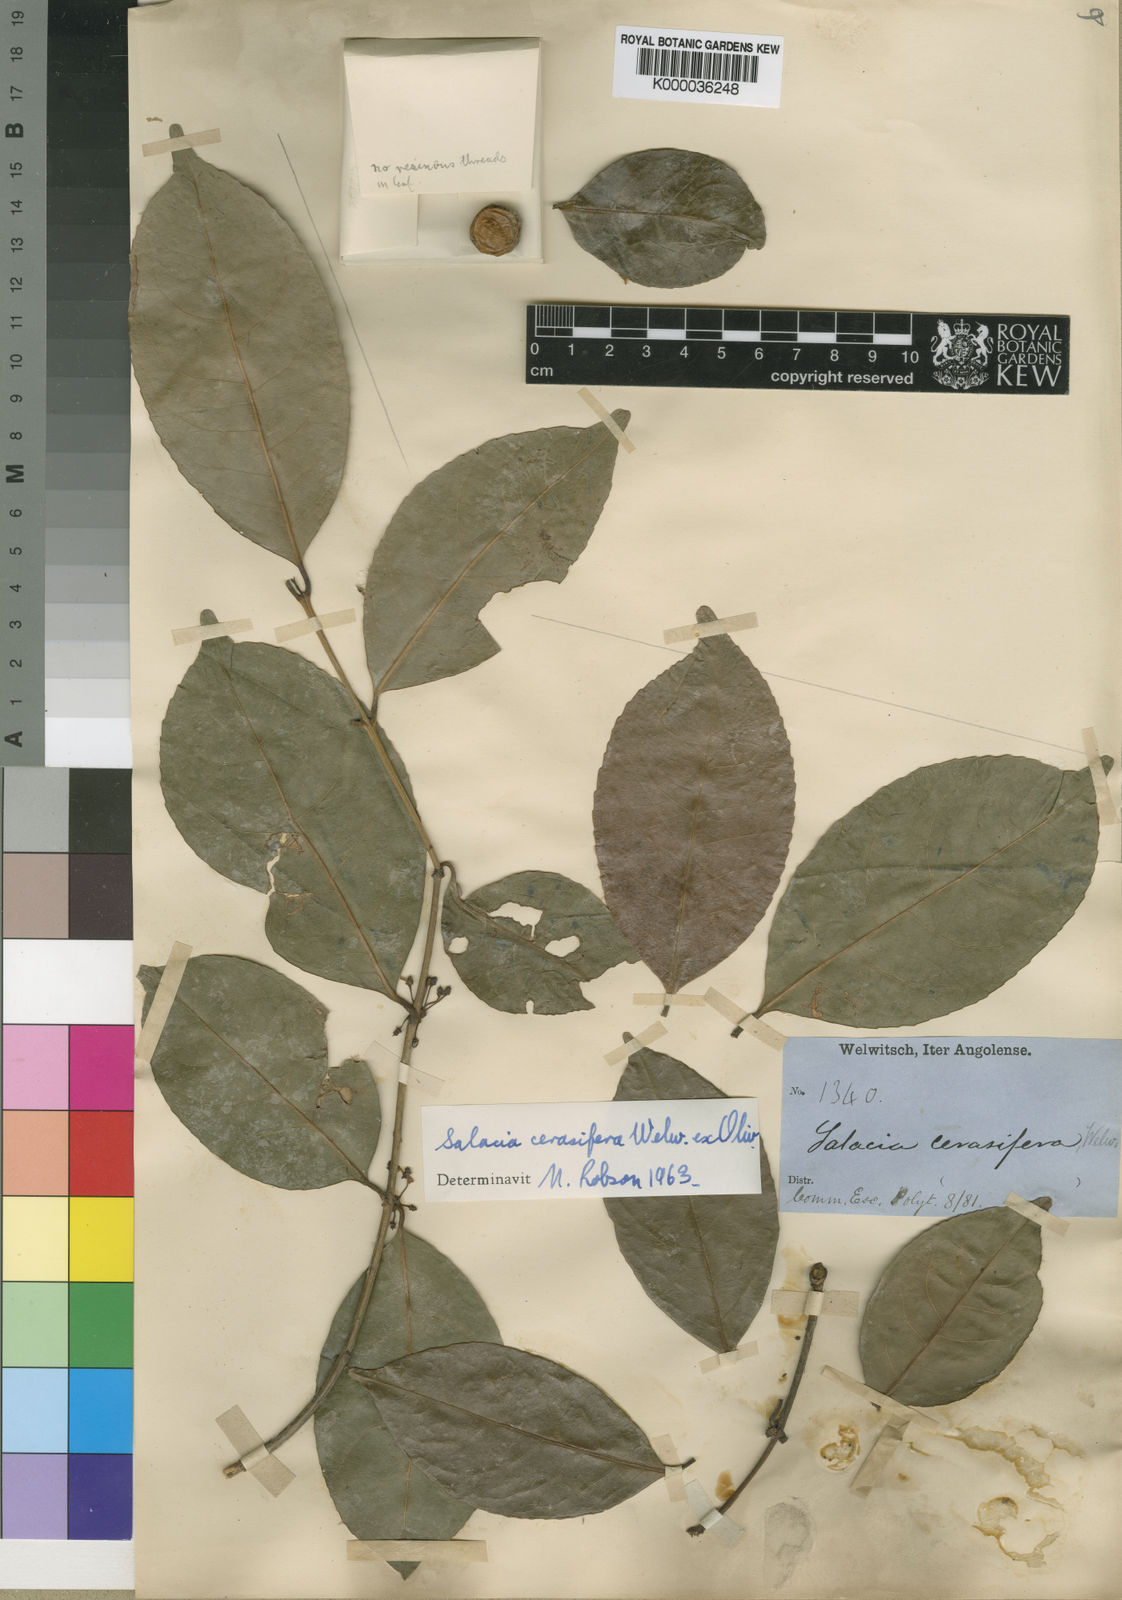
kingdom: Plantae
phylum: Tracheophyta
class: Magnoliopsida
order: Celastrales
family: Celastraceae
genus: Salacia
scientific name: Salacia cerasifera
